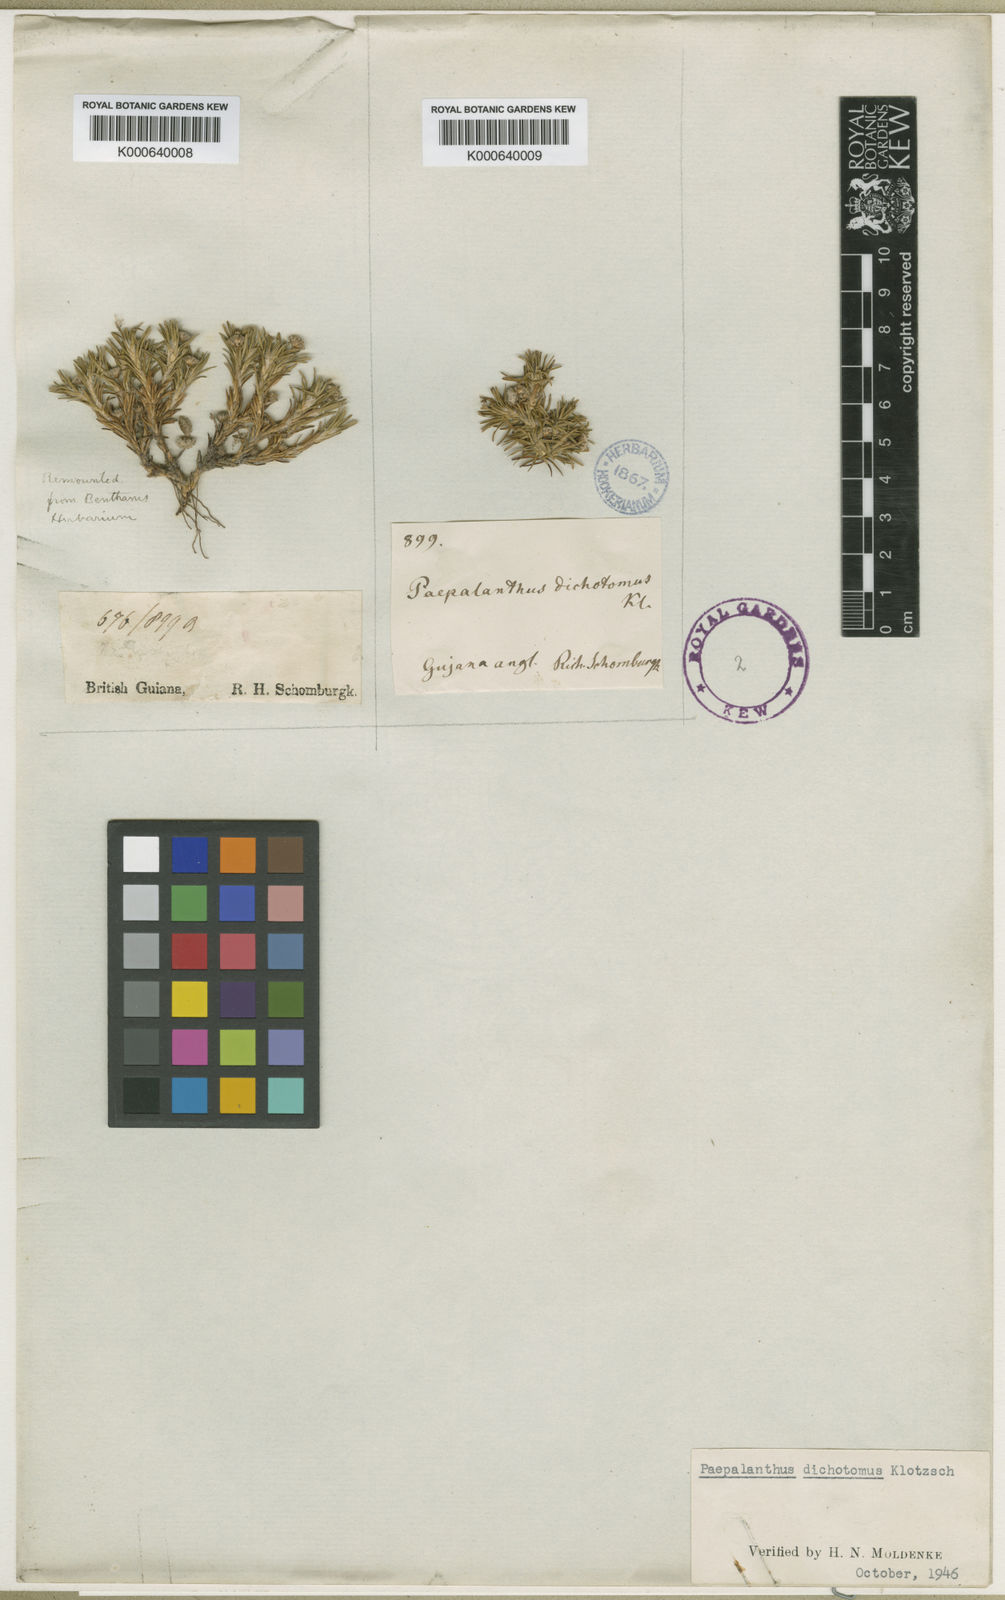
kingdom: Plantae
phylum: Tracheophyta
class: Liliopsida
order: Poales
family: Eriocaulaceae
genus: Paepalanthus
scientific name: Paepalanthus
